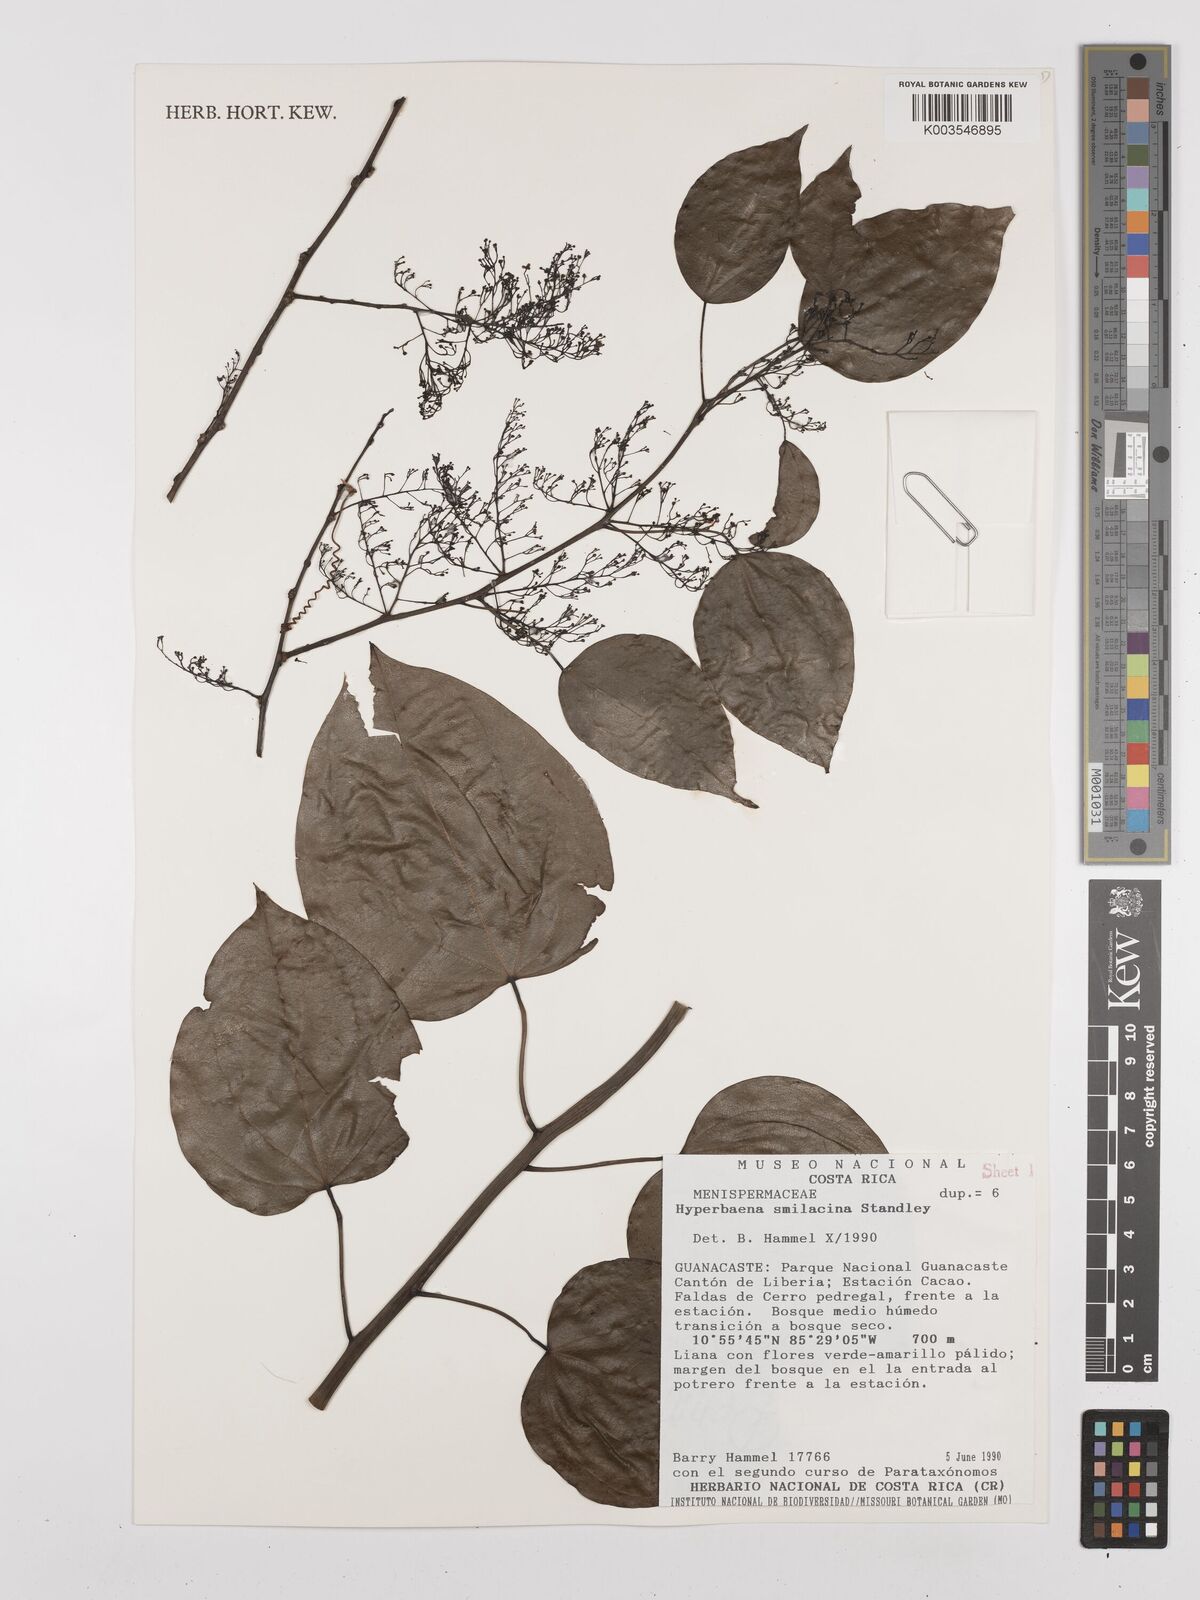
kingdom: Plantae
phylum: Tracheophyta
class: Magnoliopsida
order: Ranunculales
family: Menispermaceae
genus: Hyperbaena
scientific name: Hyperbaena smilacina
